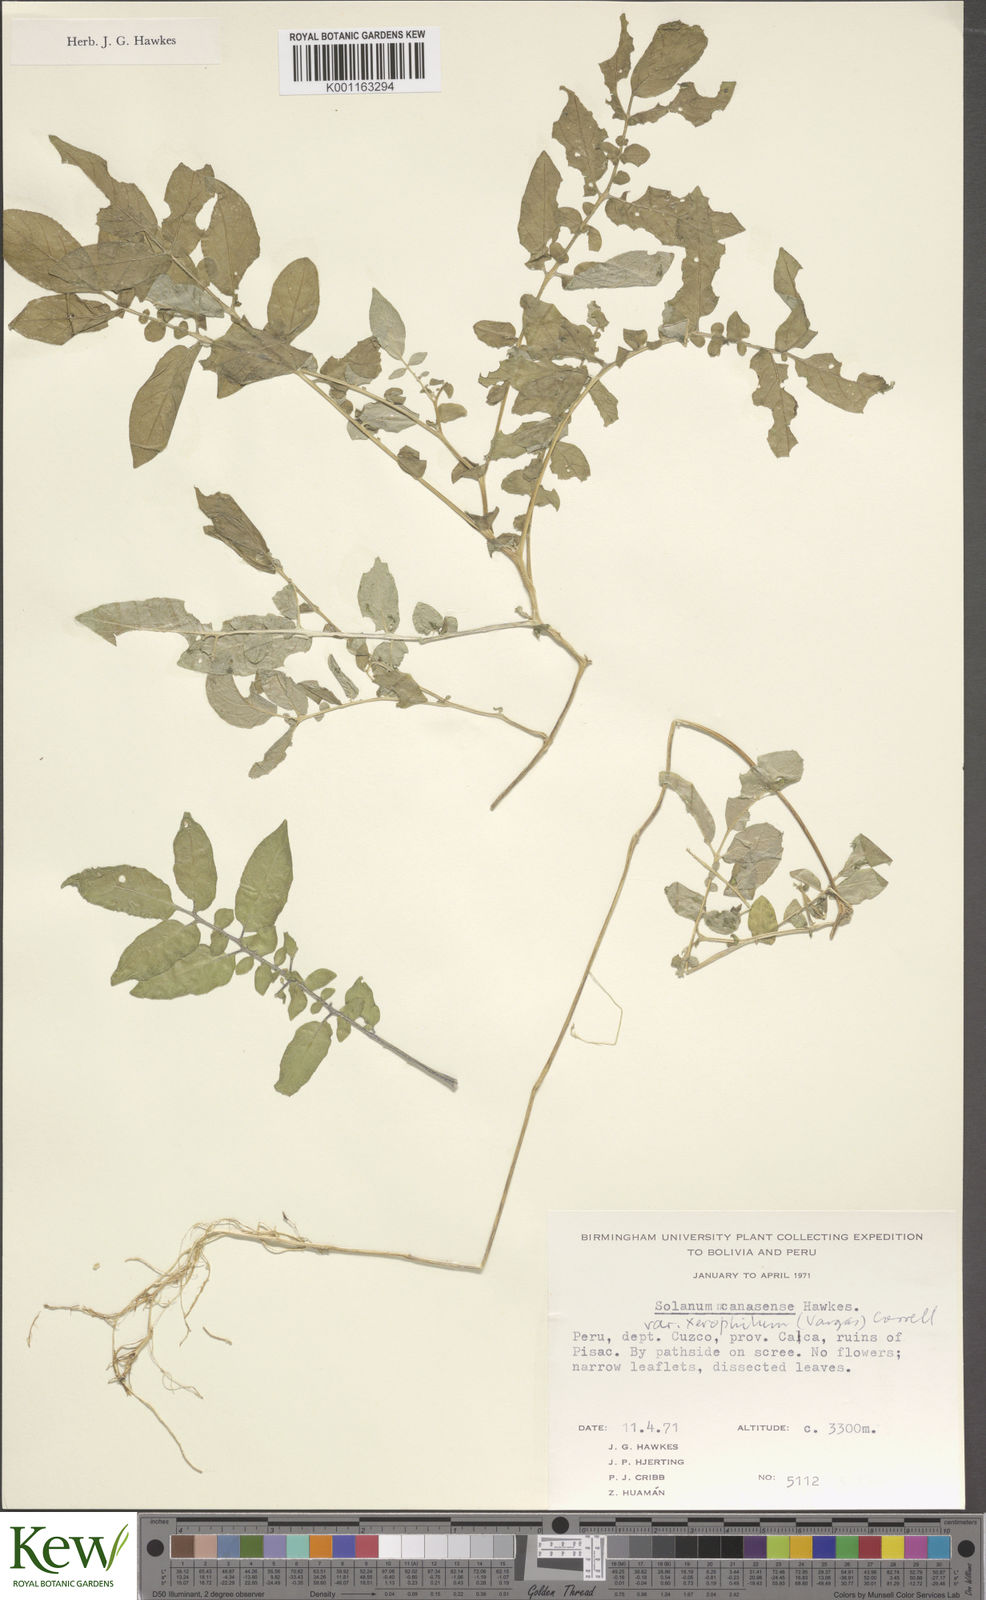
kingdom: Plantae
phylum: Tracheophyta
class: Magnoliopsida
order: Solanales
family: Solanaceae
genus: Solanum
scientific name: Solanum candolleanum
